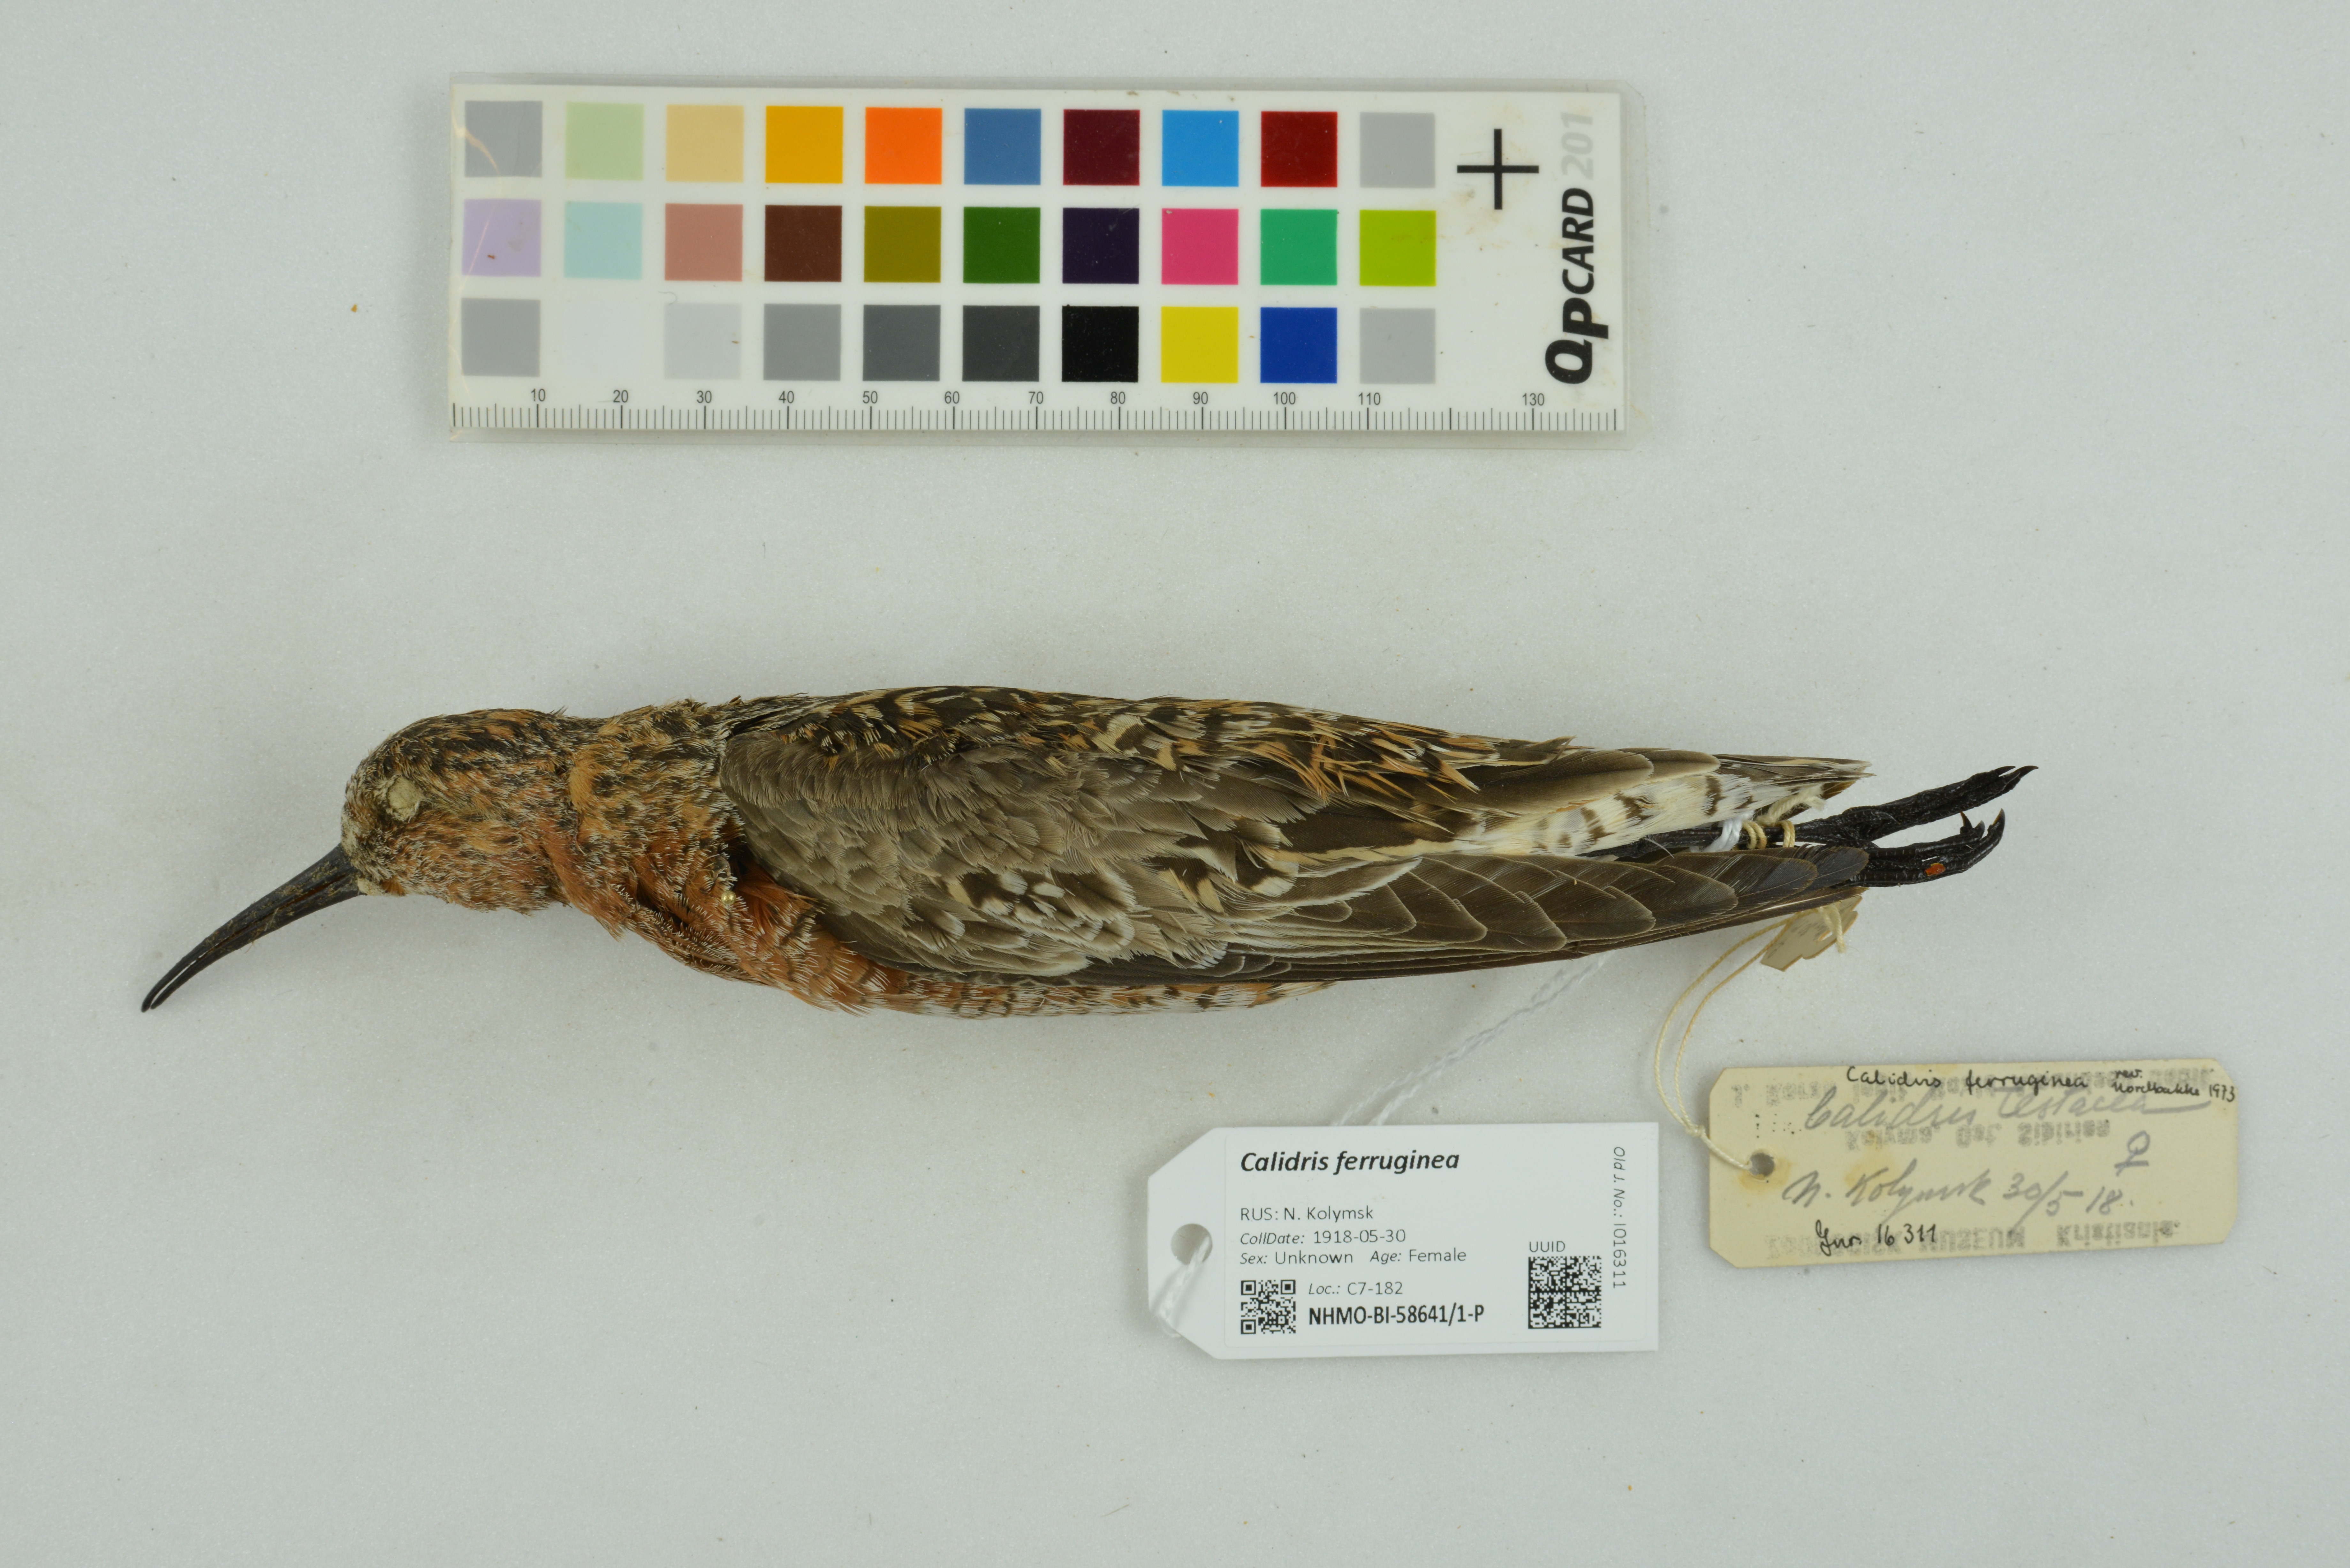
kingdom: Animalia
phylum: Chordata
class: Aves
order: Charadriiformes
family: Scolopacidae
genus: Calidris
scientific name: Calidris ferruginea
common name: Curlew sandpiper
